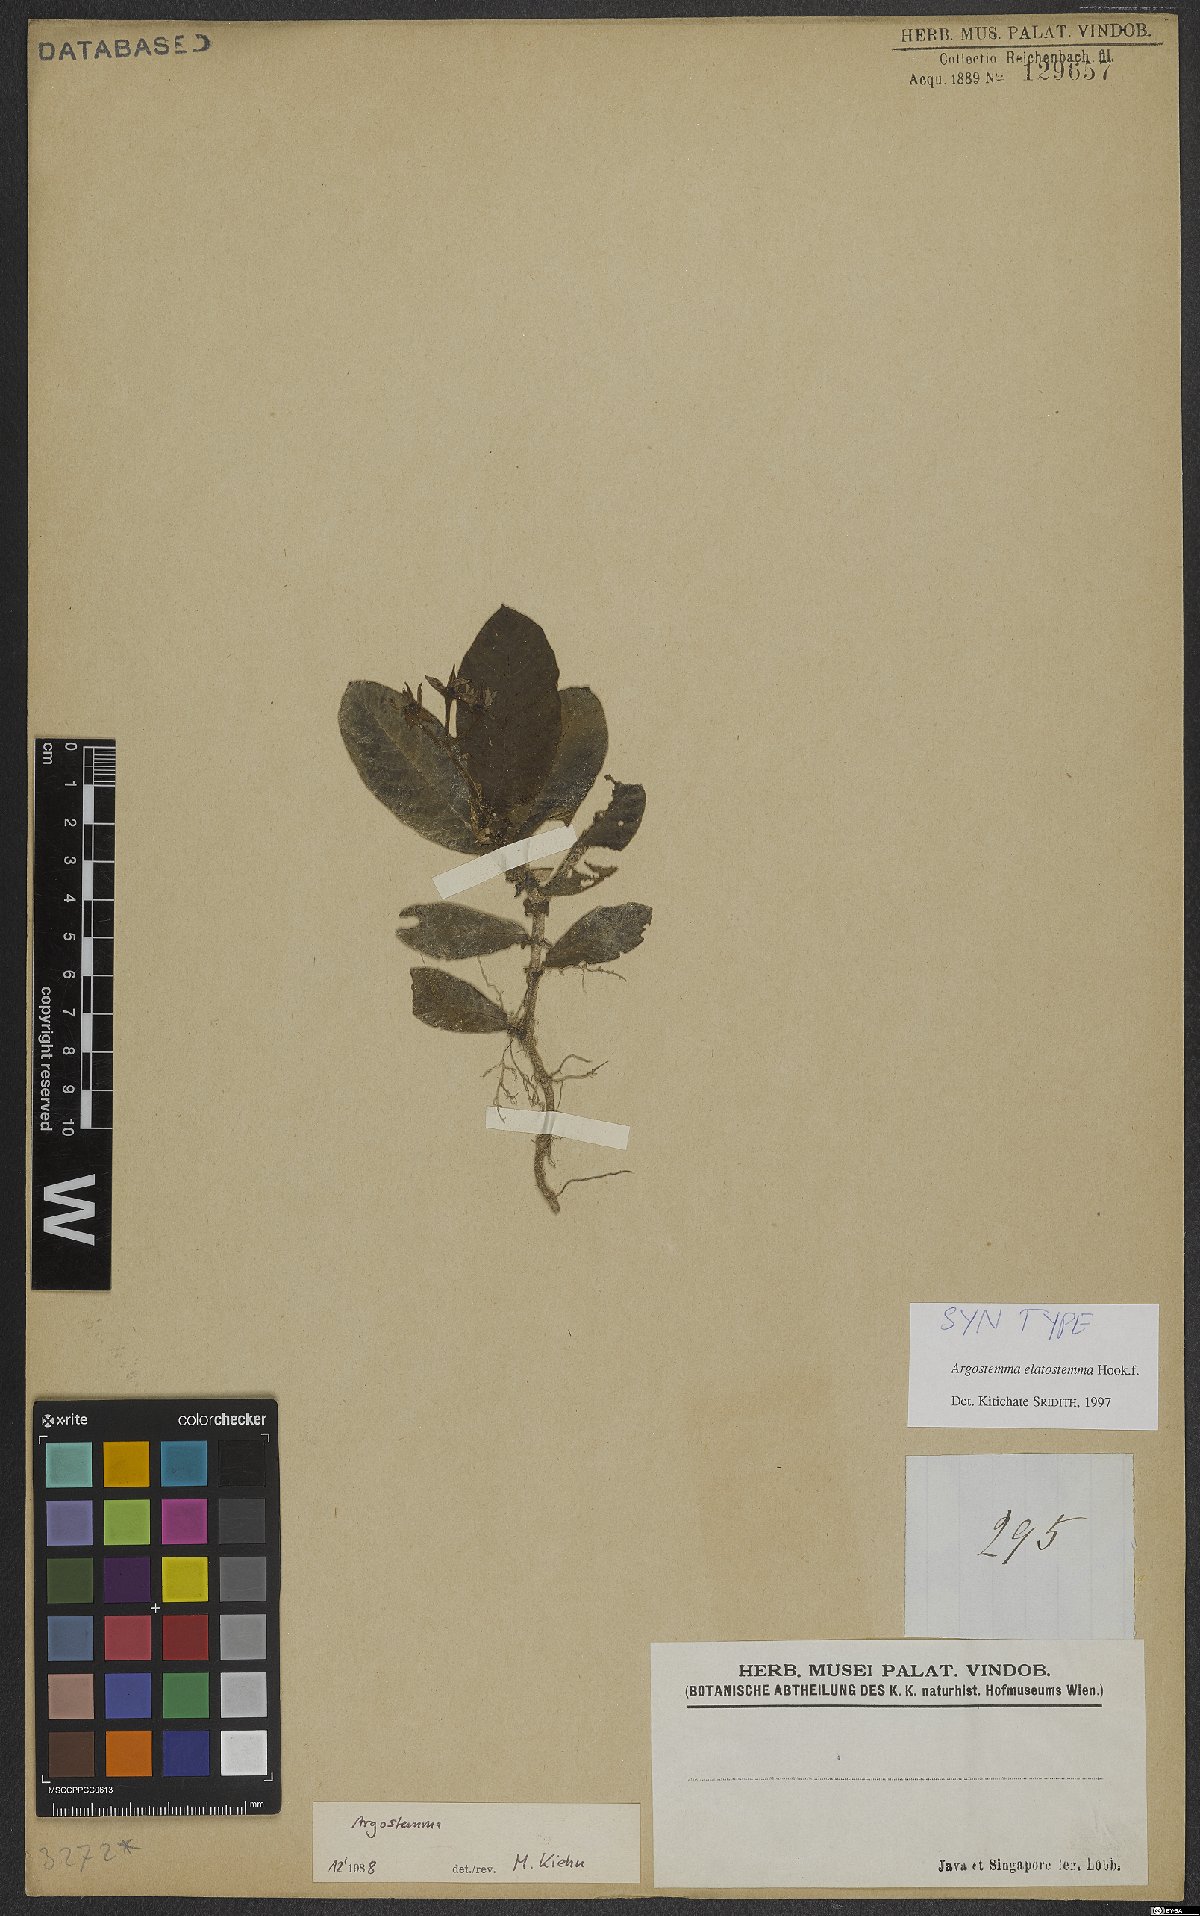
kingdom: Plantae
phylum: Tracheophyta
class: Magnoliopsida
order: Gentianales
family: Rubiaceae
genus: Argostemma
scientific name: Argostemma elatostemma
